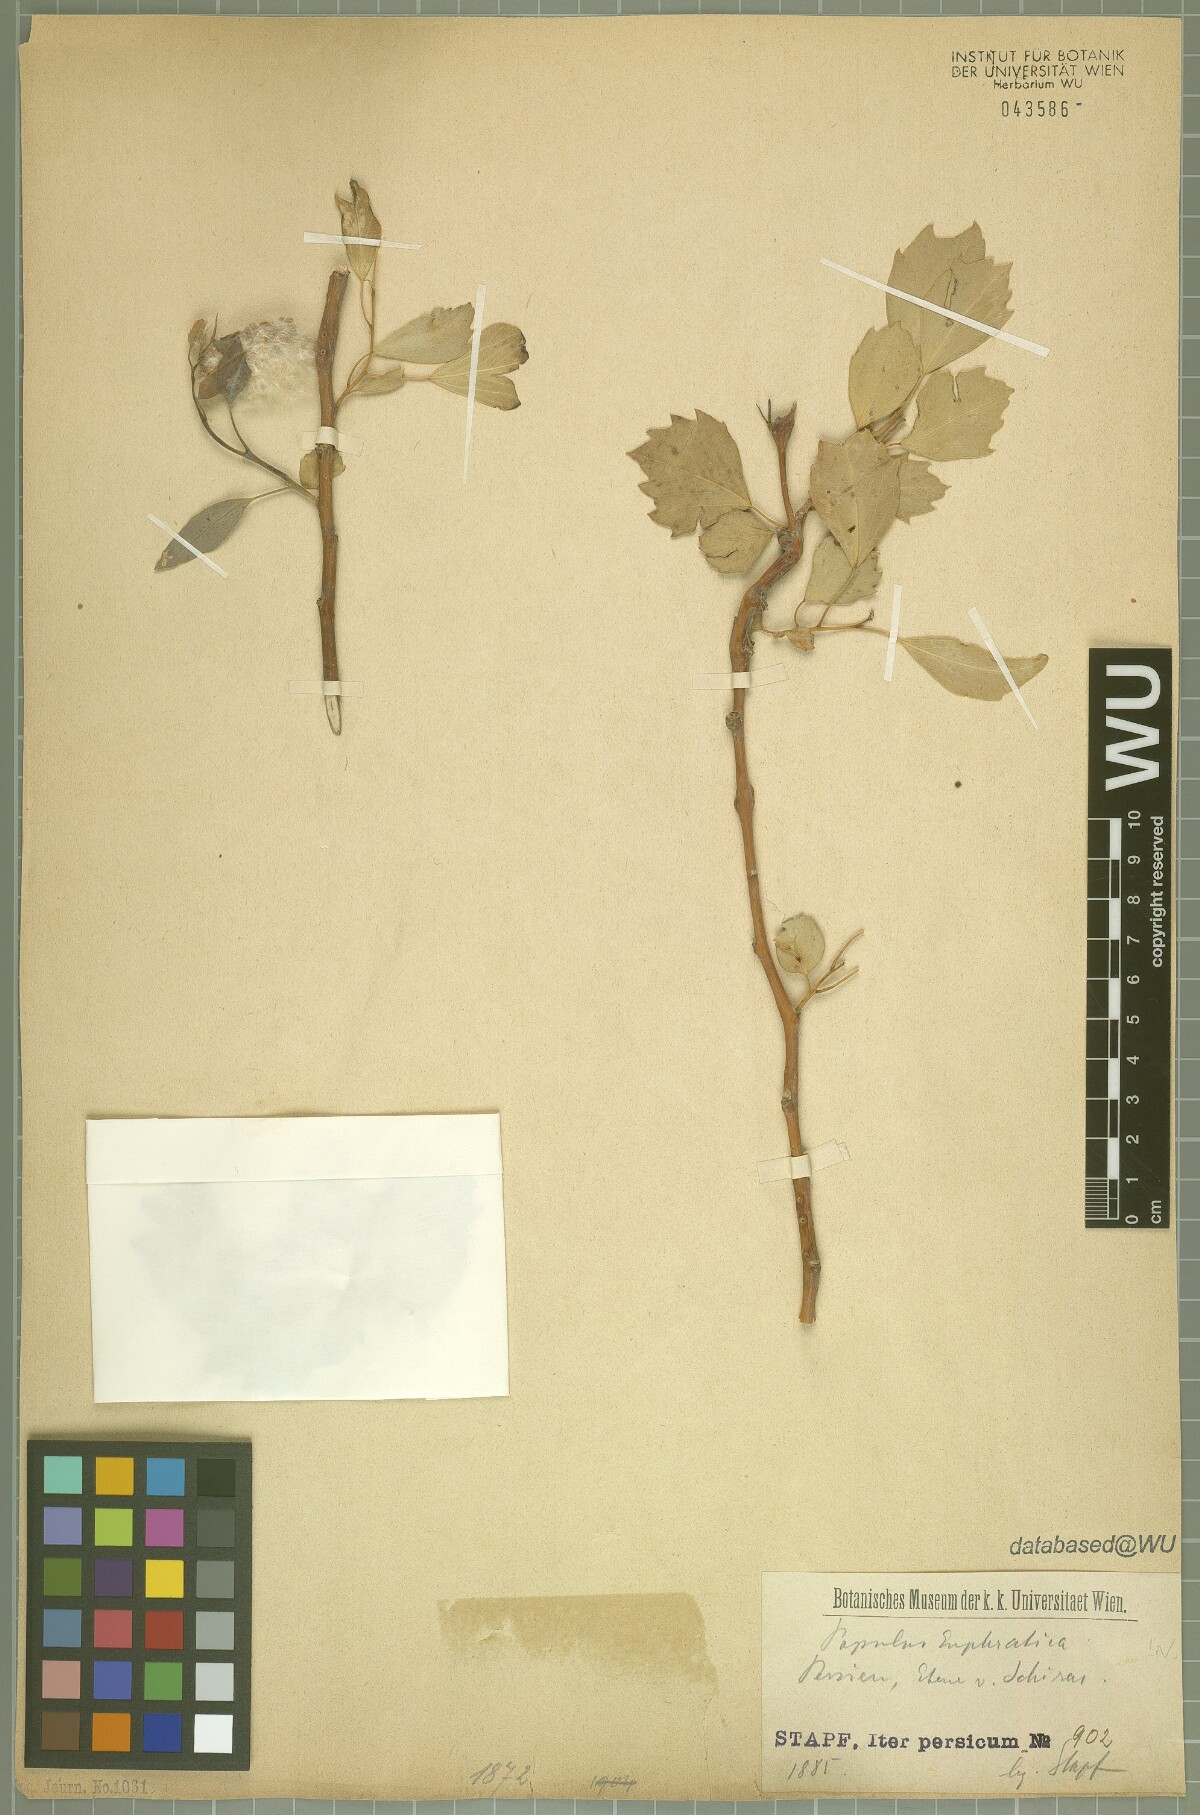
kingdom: Plantae
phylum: Tracheophyta
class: Magnoliopsida
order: Malpighiales
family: Salicaceae
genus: Populus
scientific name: Populus euphratica
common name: Euphrates poplar
